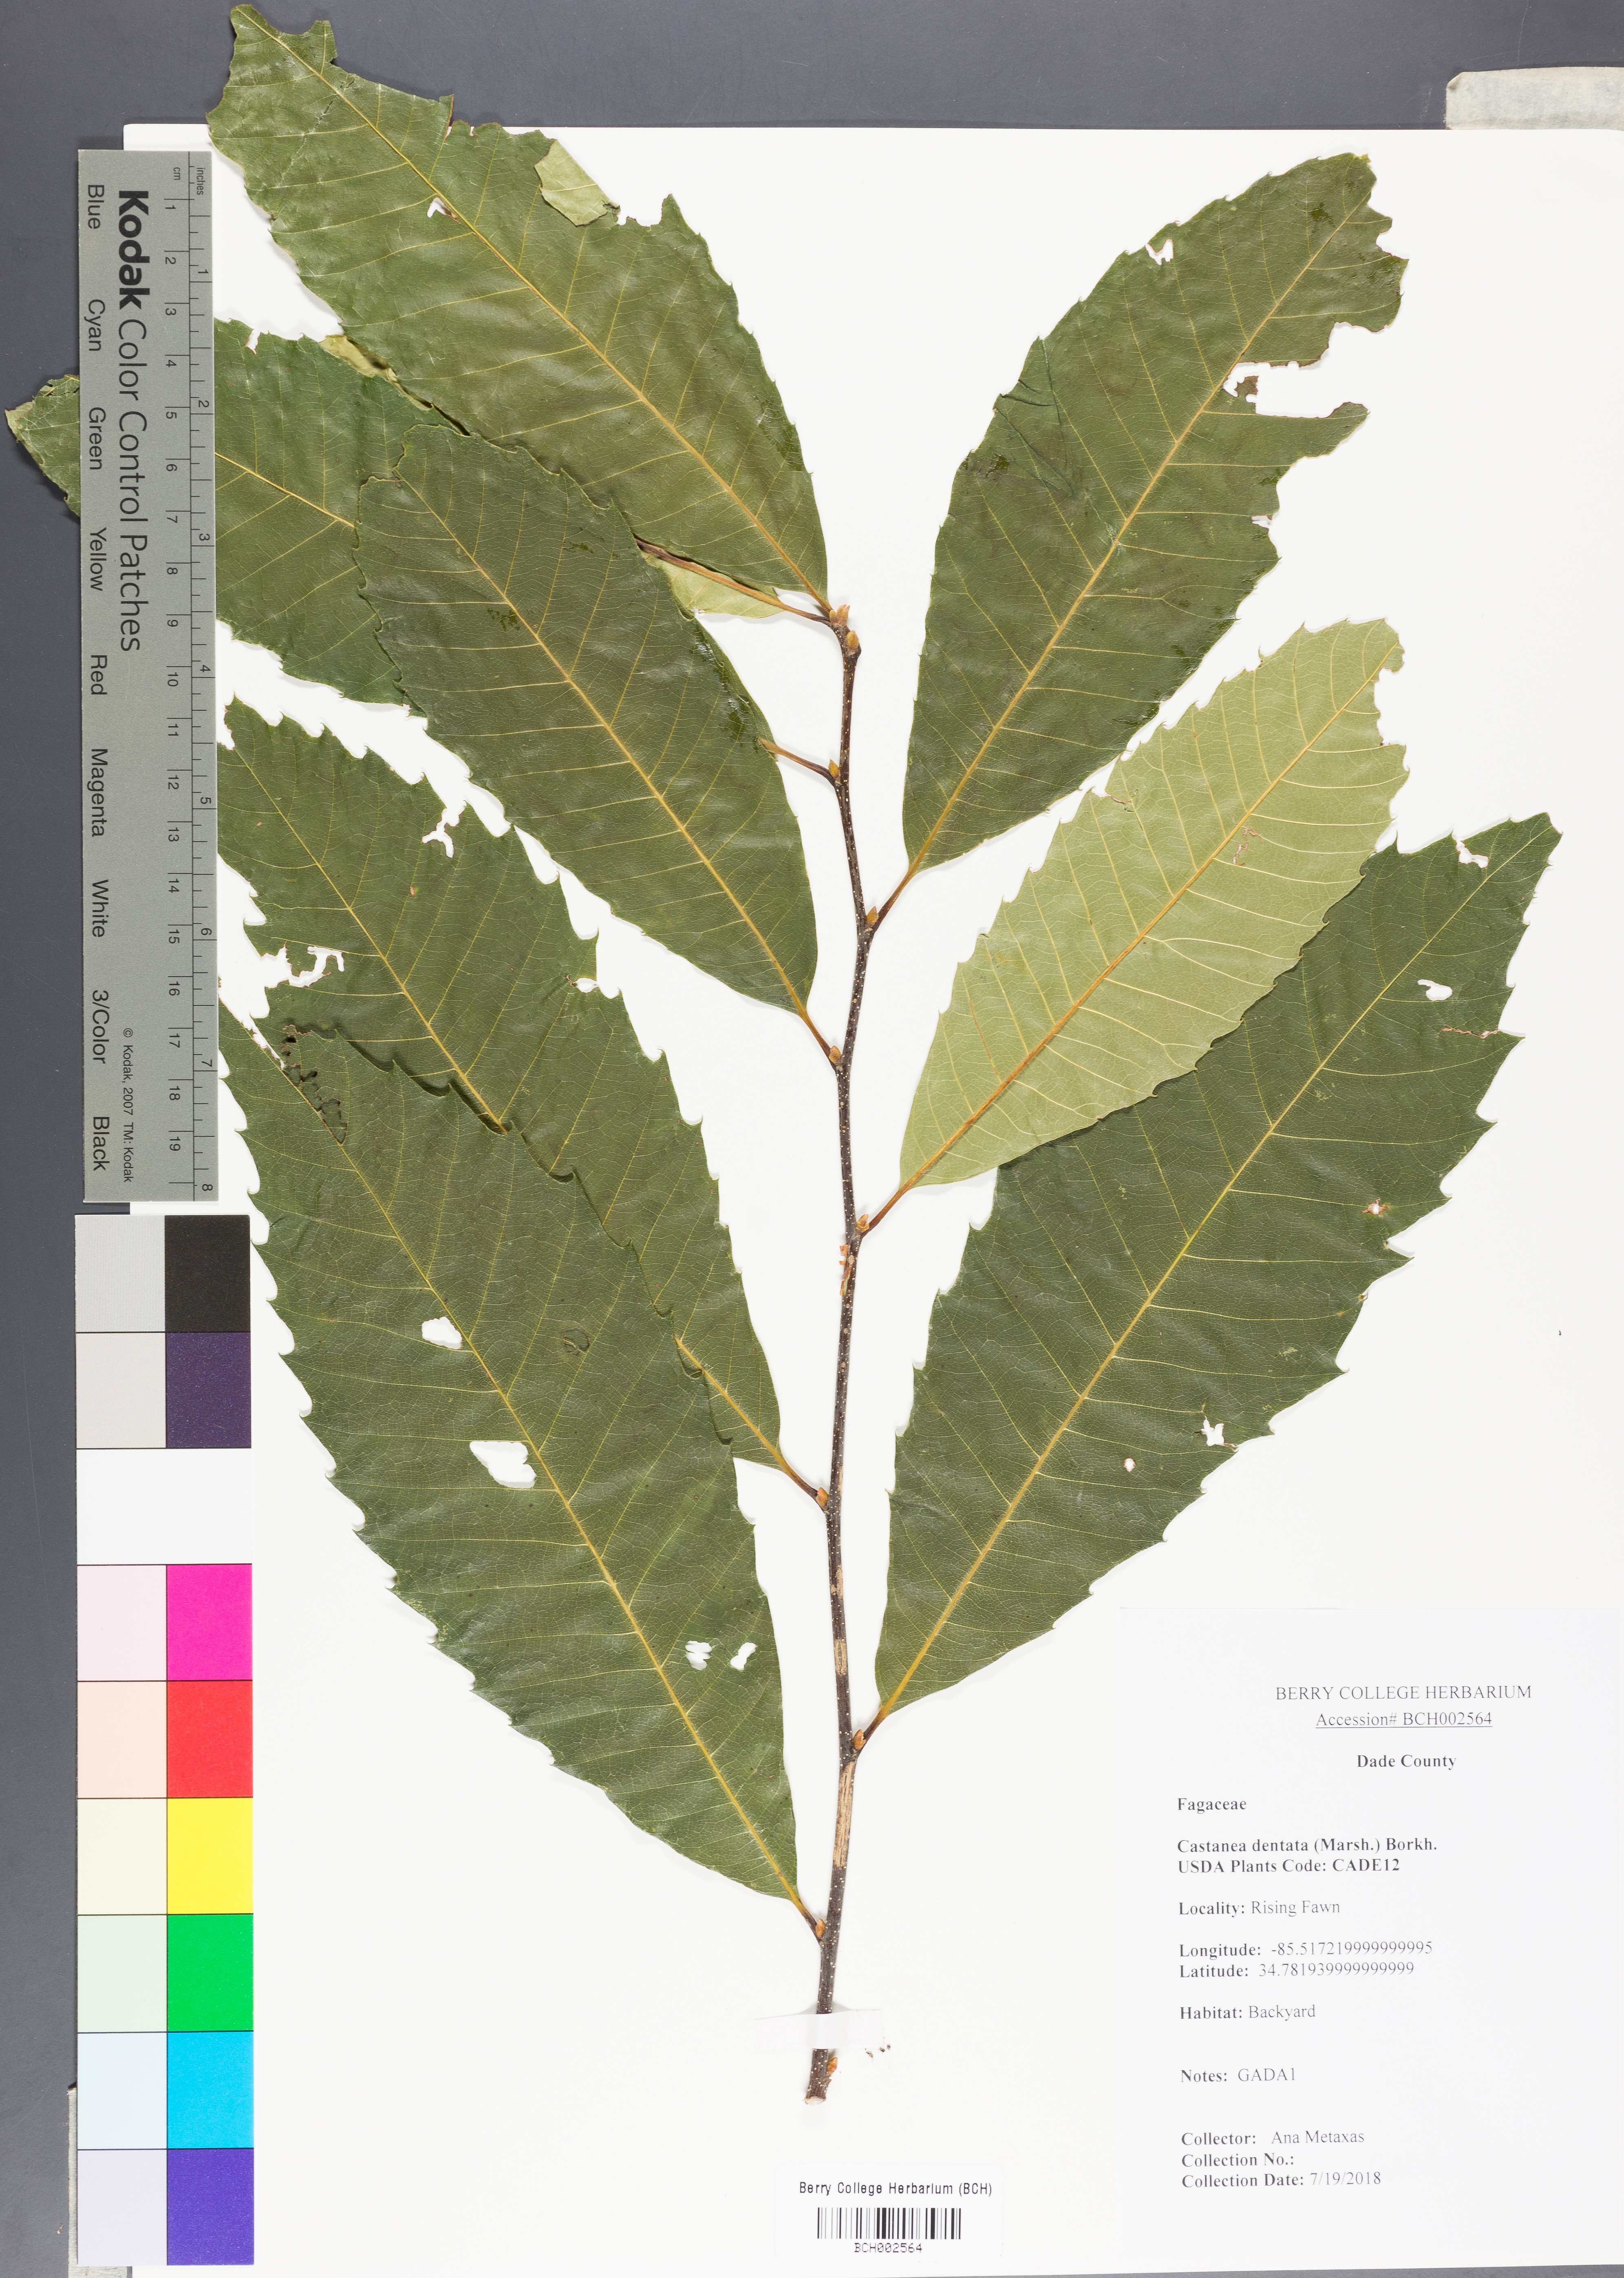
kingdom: Plantae
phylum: Tracheophyta
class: Magnoliopsida
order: Fagales
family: Fagaceae
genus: Castanea
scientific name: Castanea dentata
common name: American chestnut
